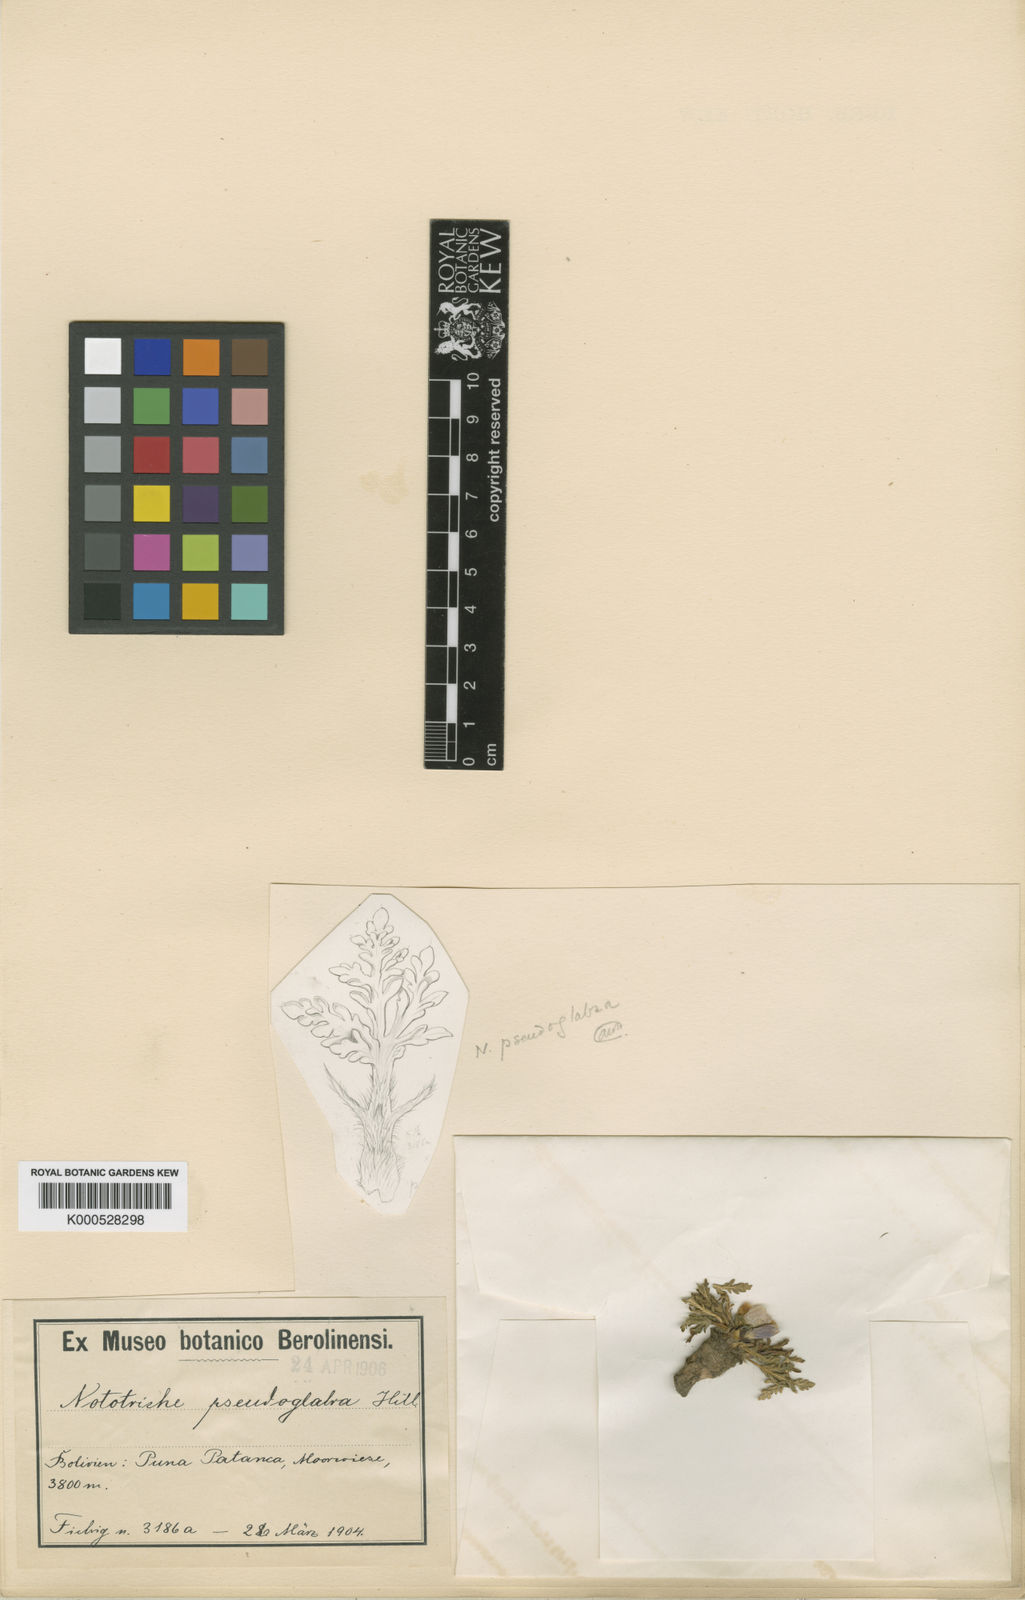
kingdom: Plantae
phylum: Tracheophyta
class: Magnoliopsida
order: Malvales
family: Malvaceae
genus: Nototriche
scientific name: Nototriche anthemidifolia
